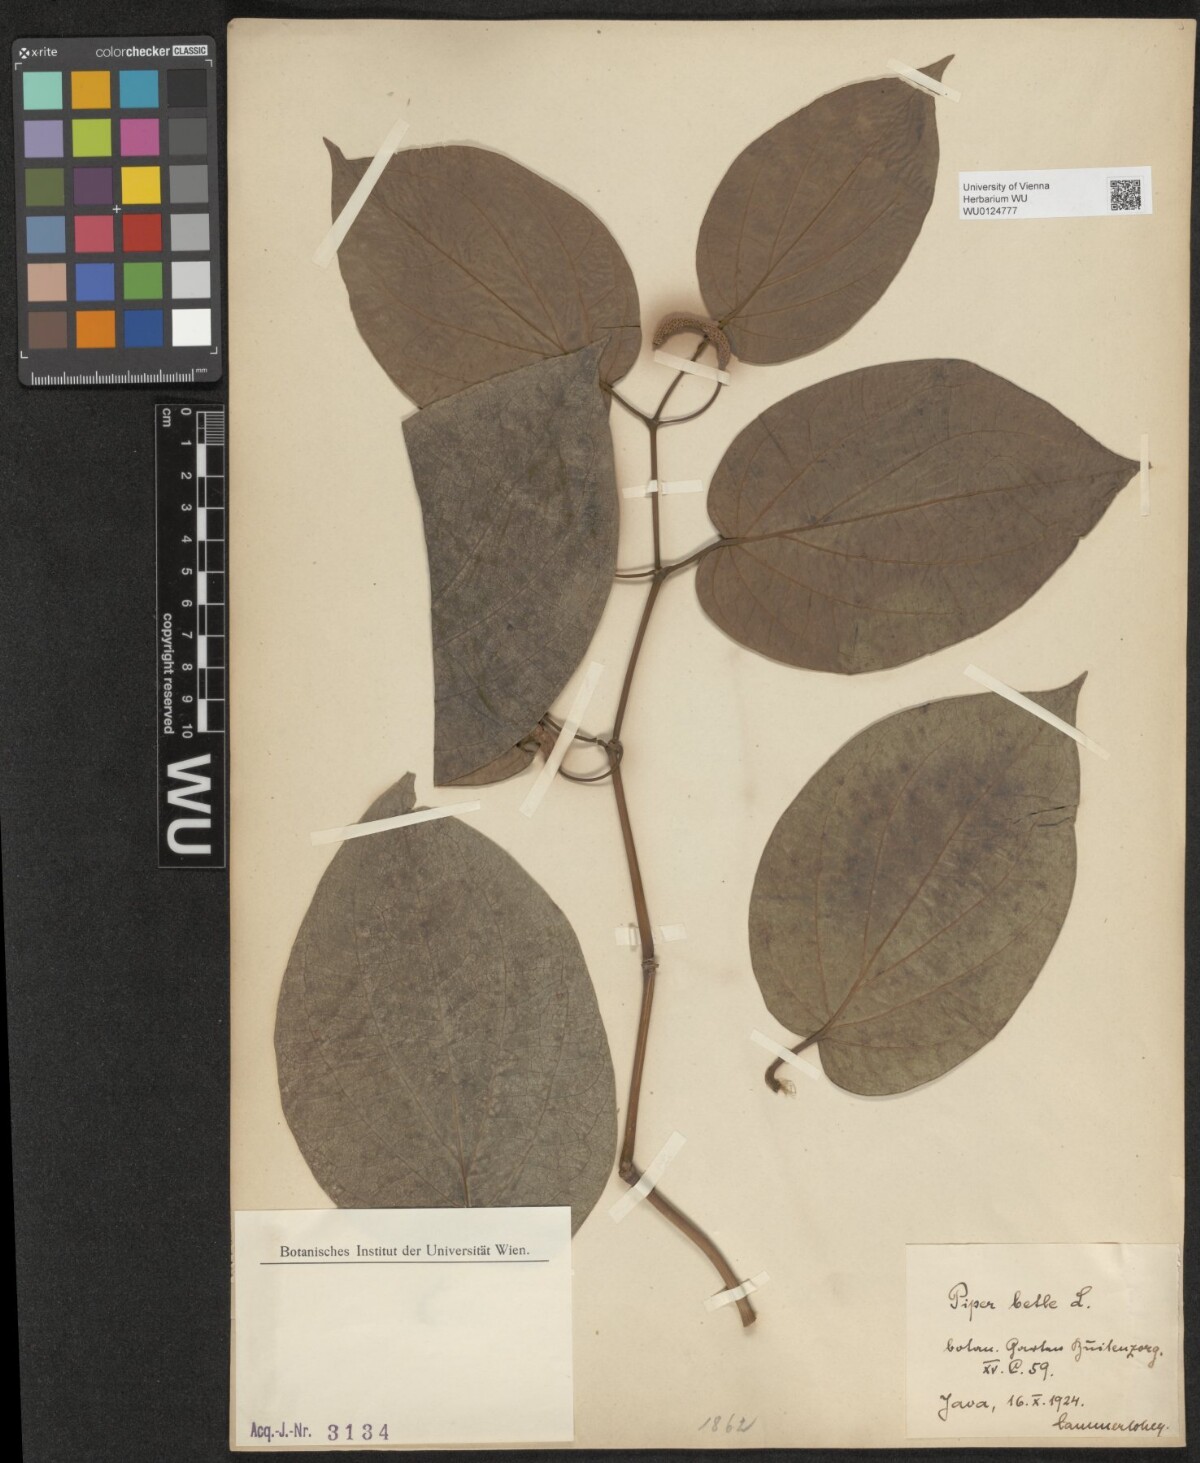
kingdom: Plantae
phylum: Tracheophyta
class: Magnoliopsida
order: Piperales
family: Piperaceae
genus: Piper
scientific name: Piper betle
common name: Betel pepper
